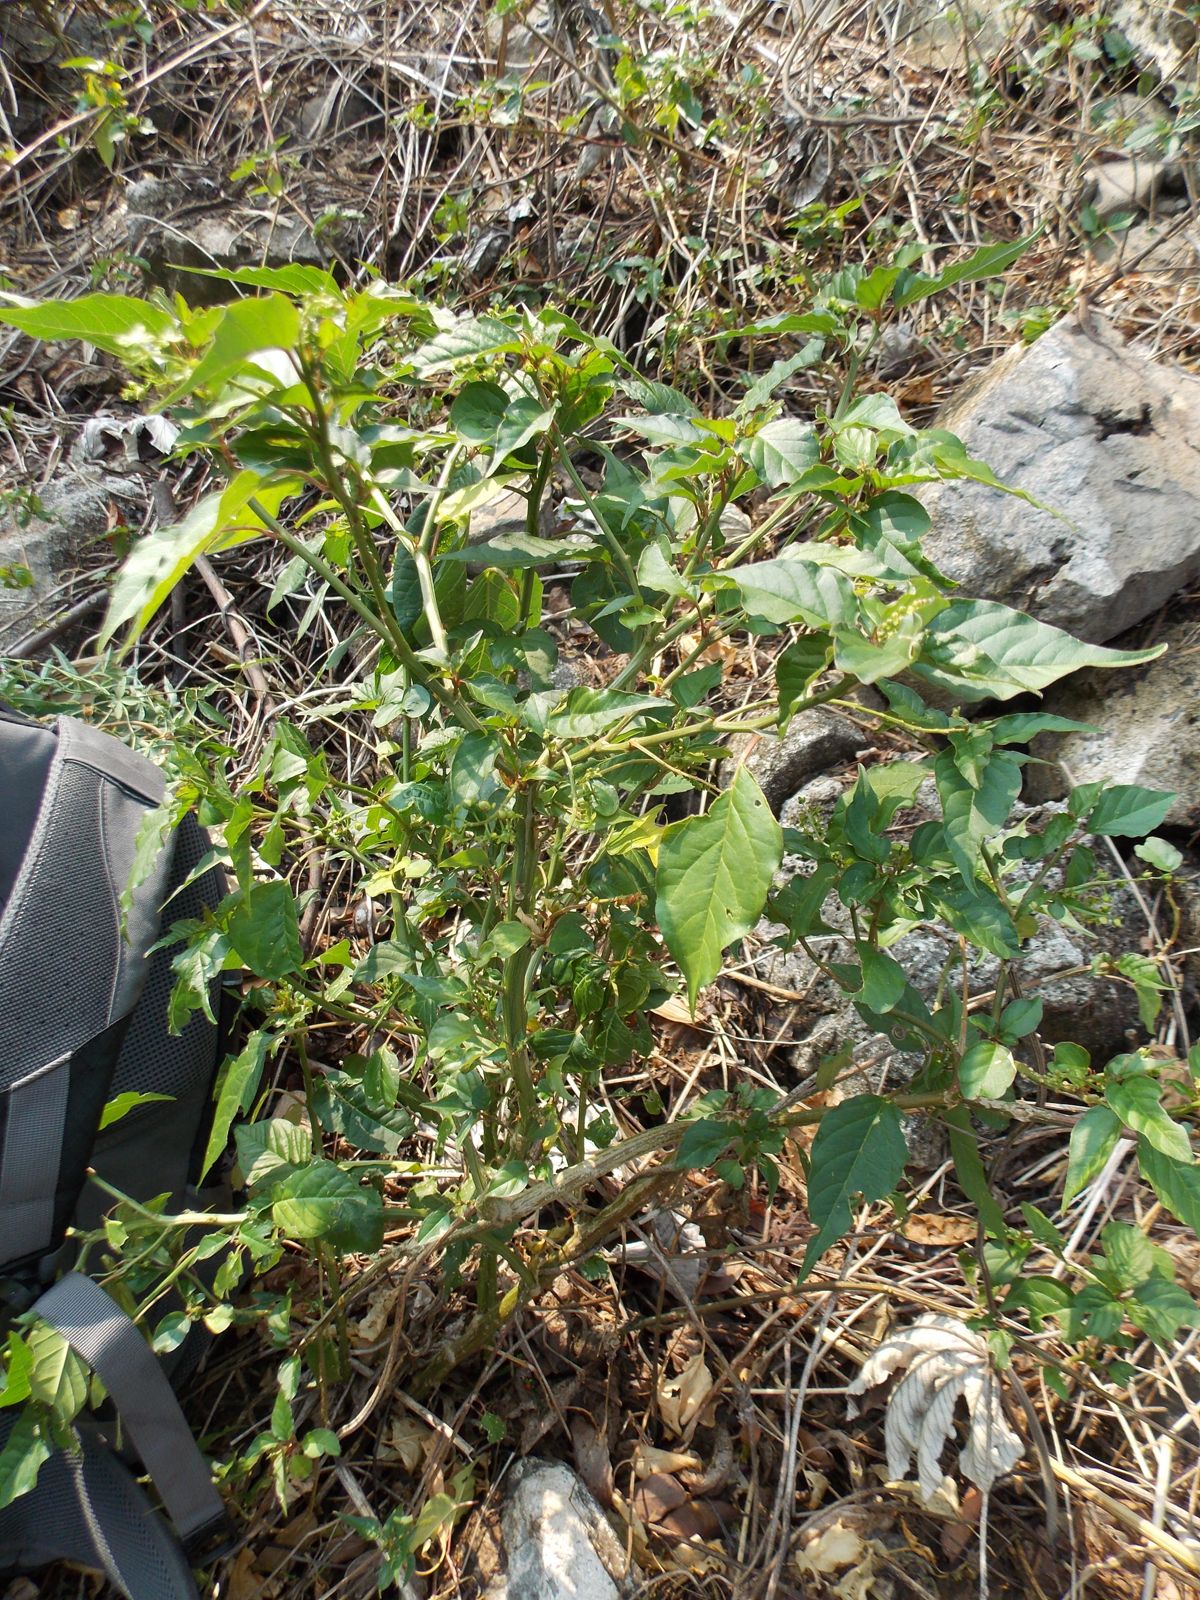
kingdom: Plantae
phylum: Tracheophyta
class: Magnoliopsida
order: Caryophyllales
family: Phytolaccaceae
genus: Rivina
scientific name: Rivina humilis
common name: Rougeplant
